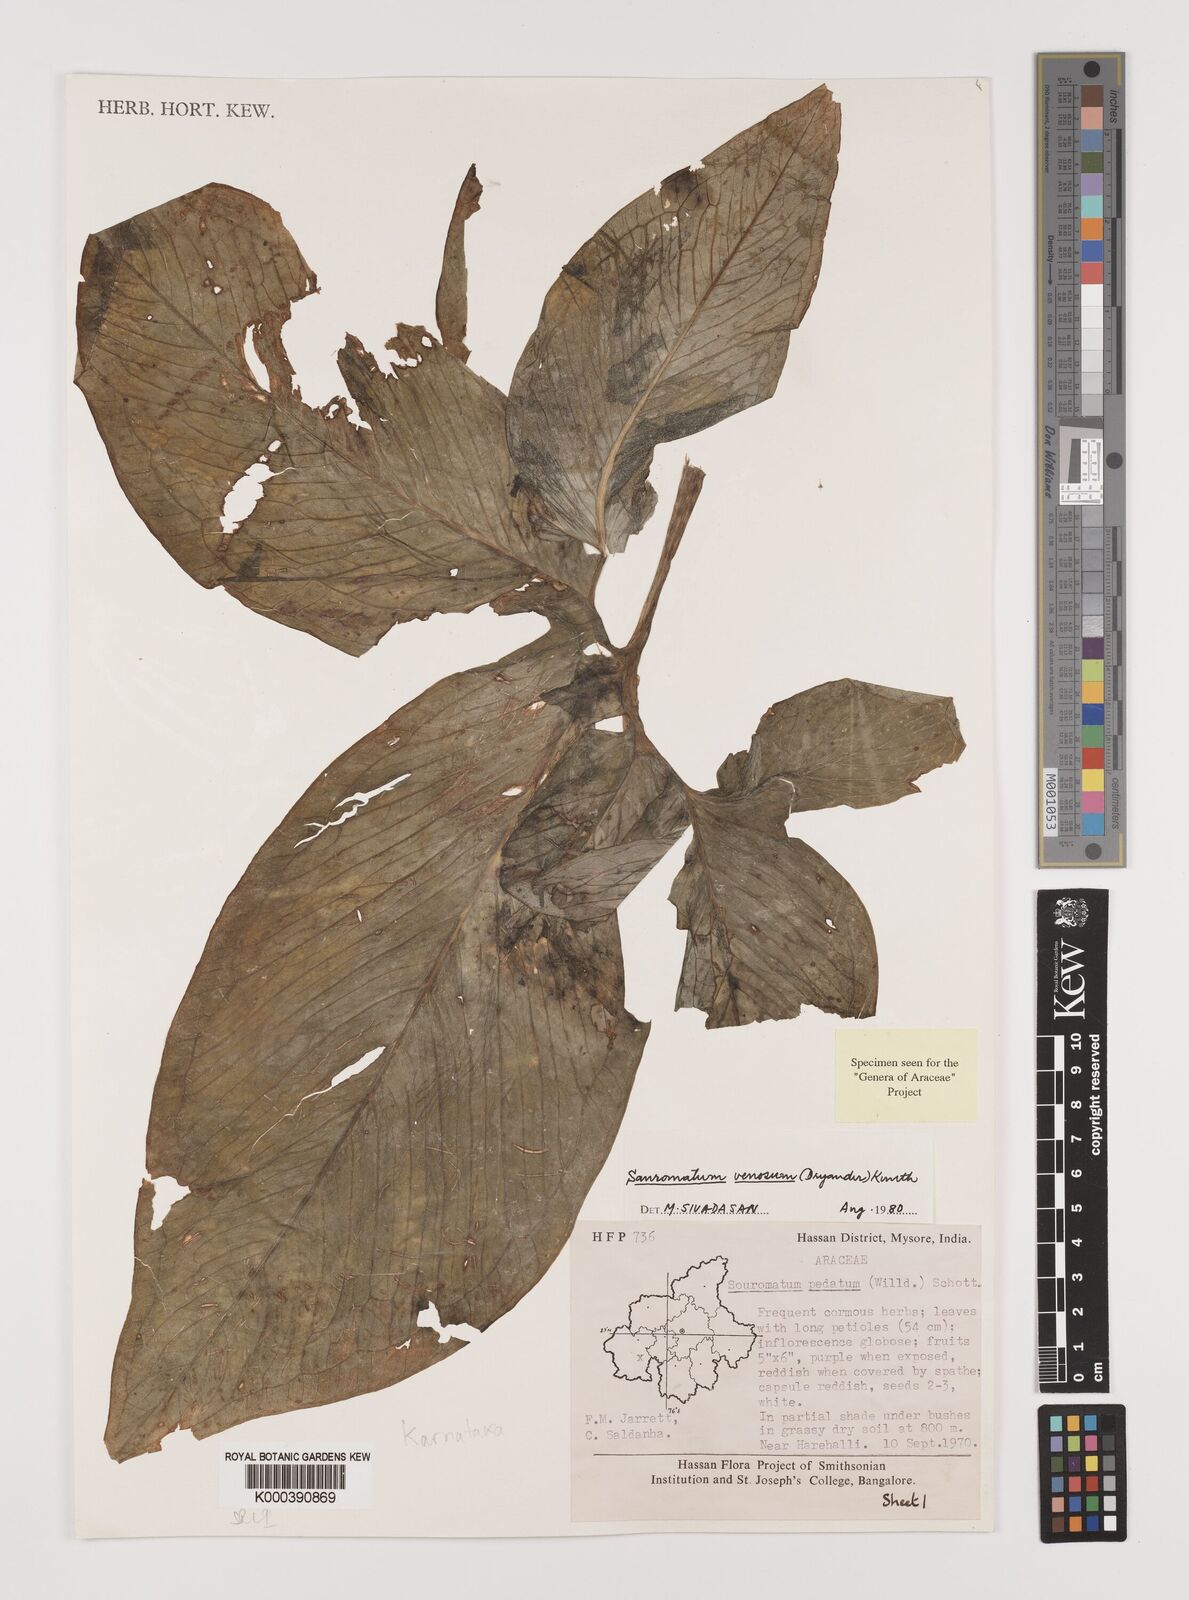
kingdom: Plantae
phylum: Tracheophyta
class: Liliopsida
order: Alismatales
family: Araceae
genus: Sauromatum
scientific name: Sauromatum venosum
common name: Voodoo lily
